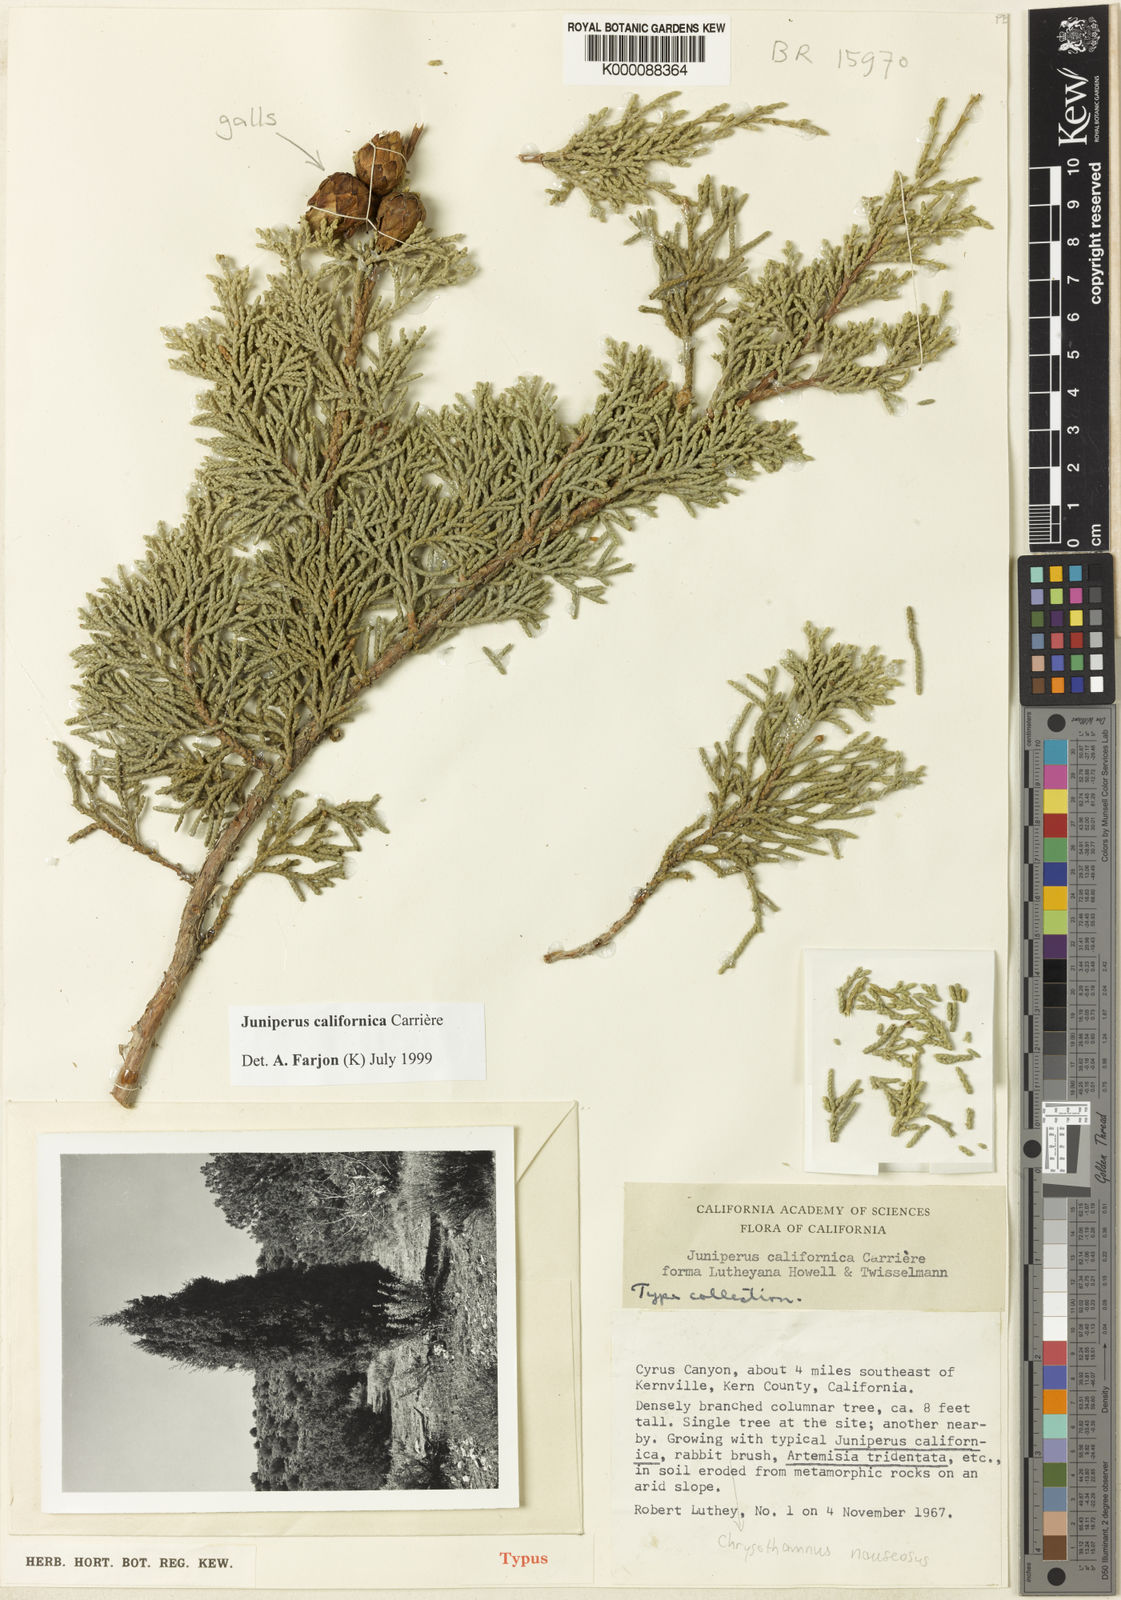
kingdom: Plantae
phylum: Tracheophyta
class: Pinopsida
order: Pinales
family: Cupressaceae
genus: Juniperus
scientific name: Juniperus
